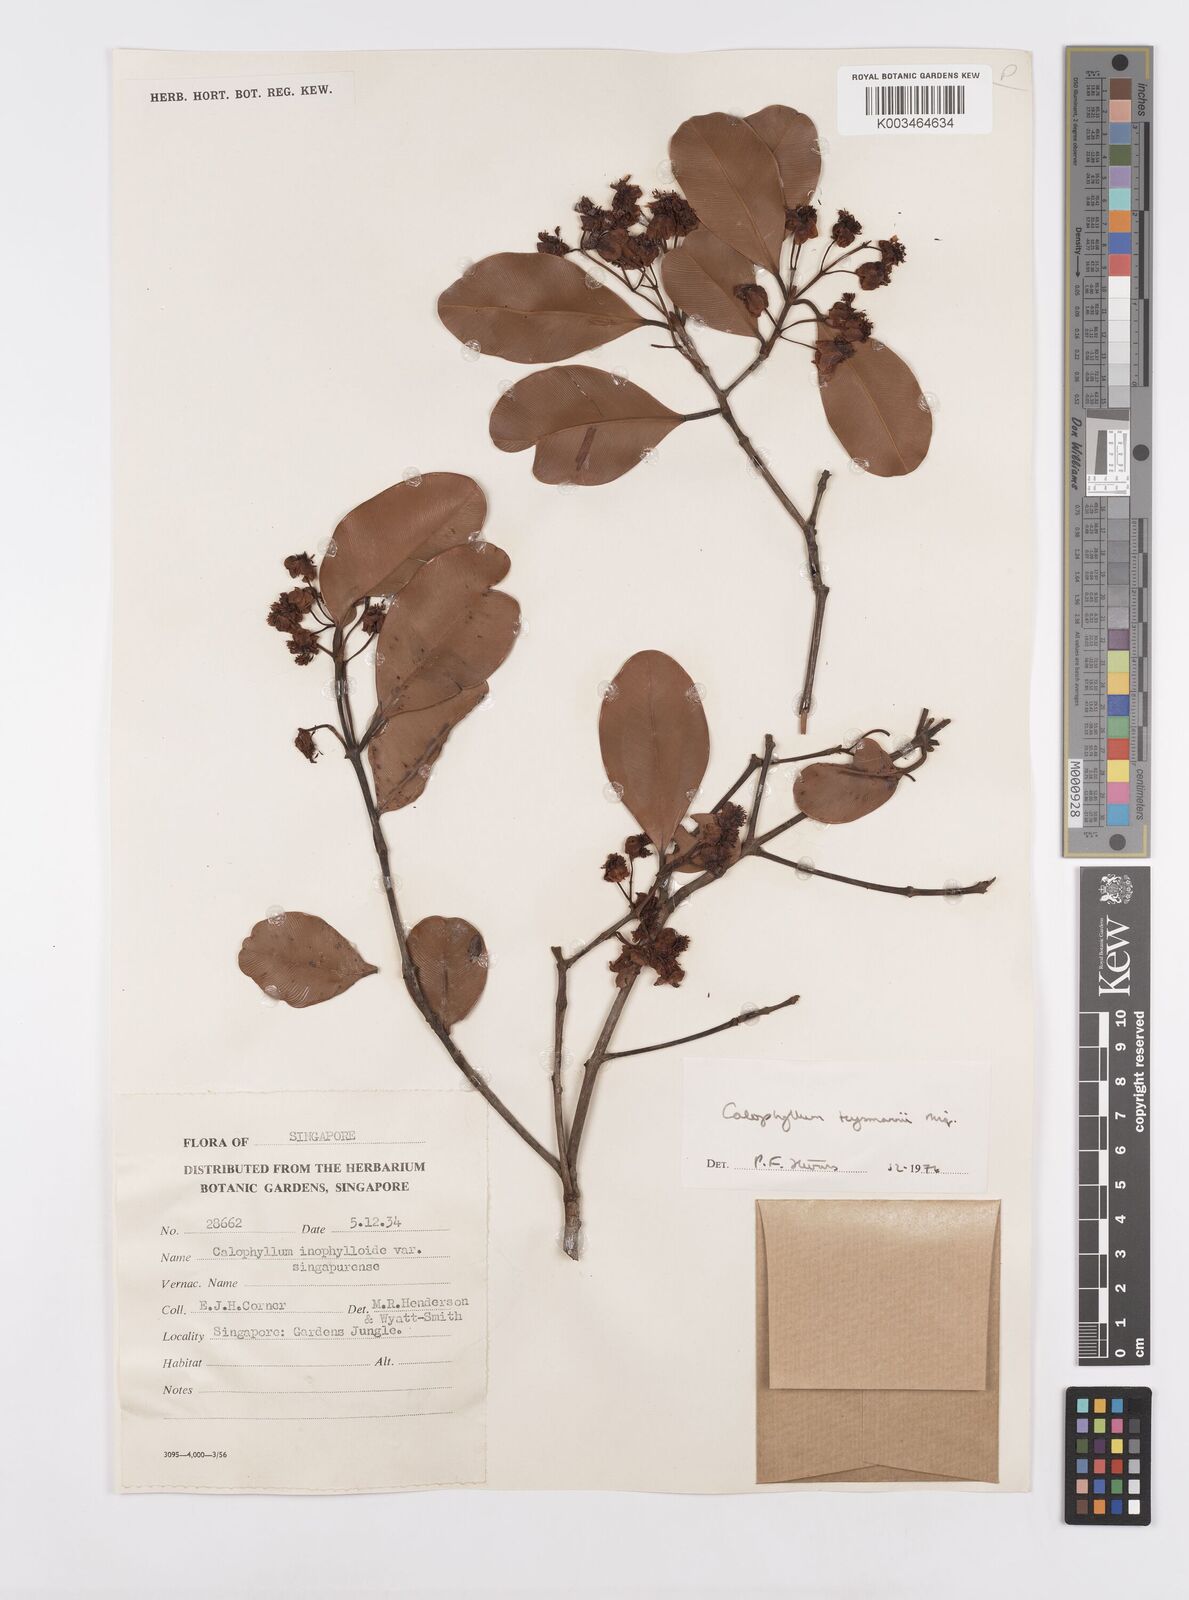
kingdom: Plantae
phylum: Tracheophyta
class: Magnoliopsida
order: Malpighiales
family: Calophyllaceae
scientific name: Calophyllaceae
